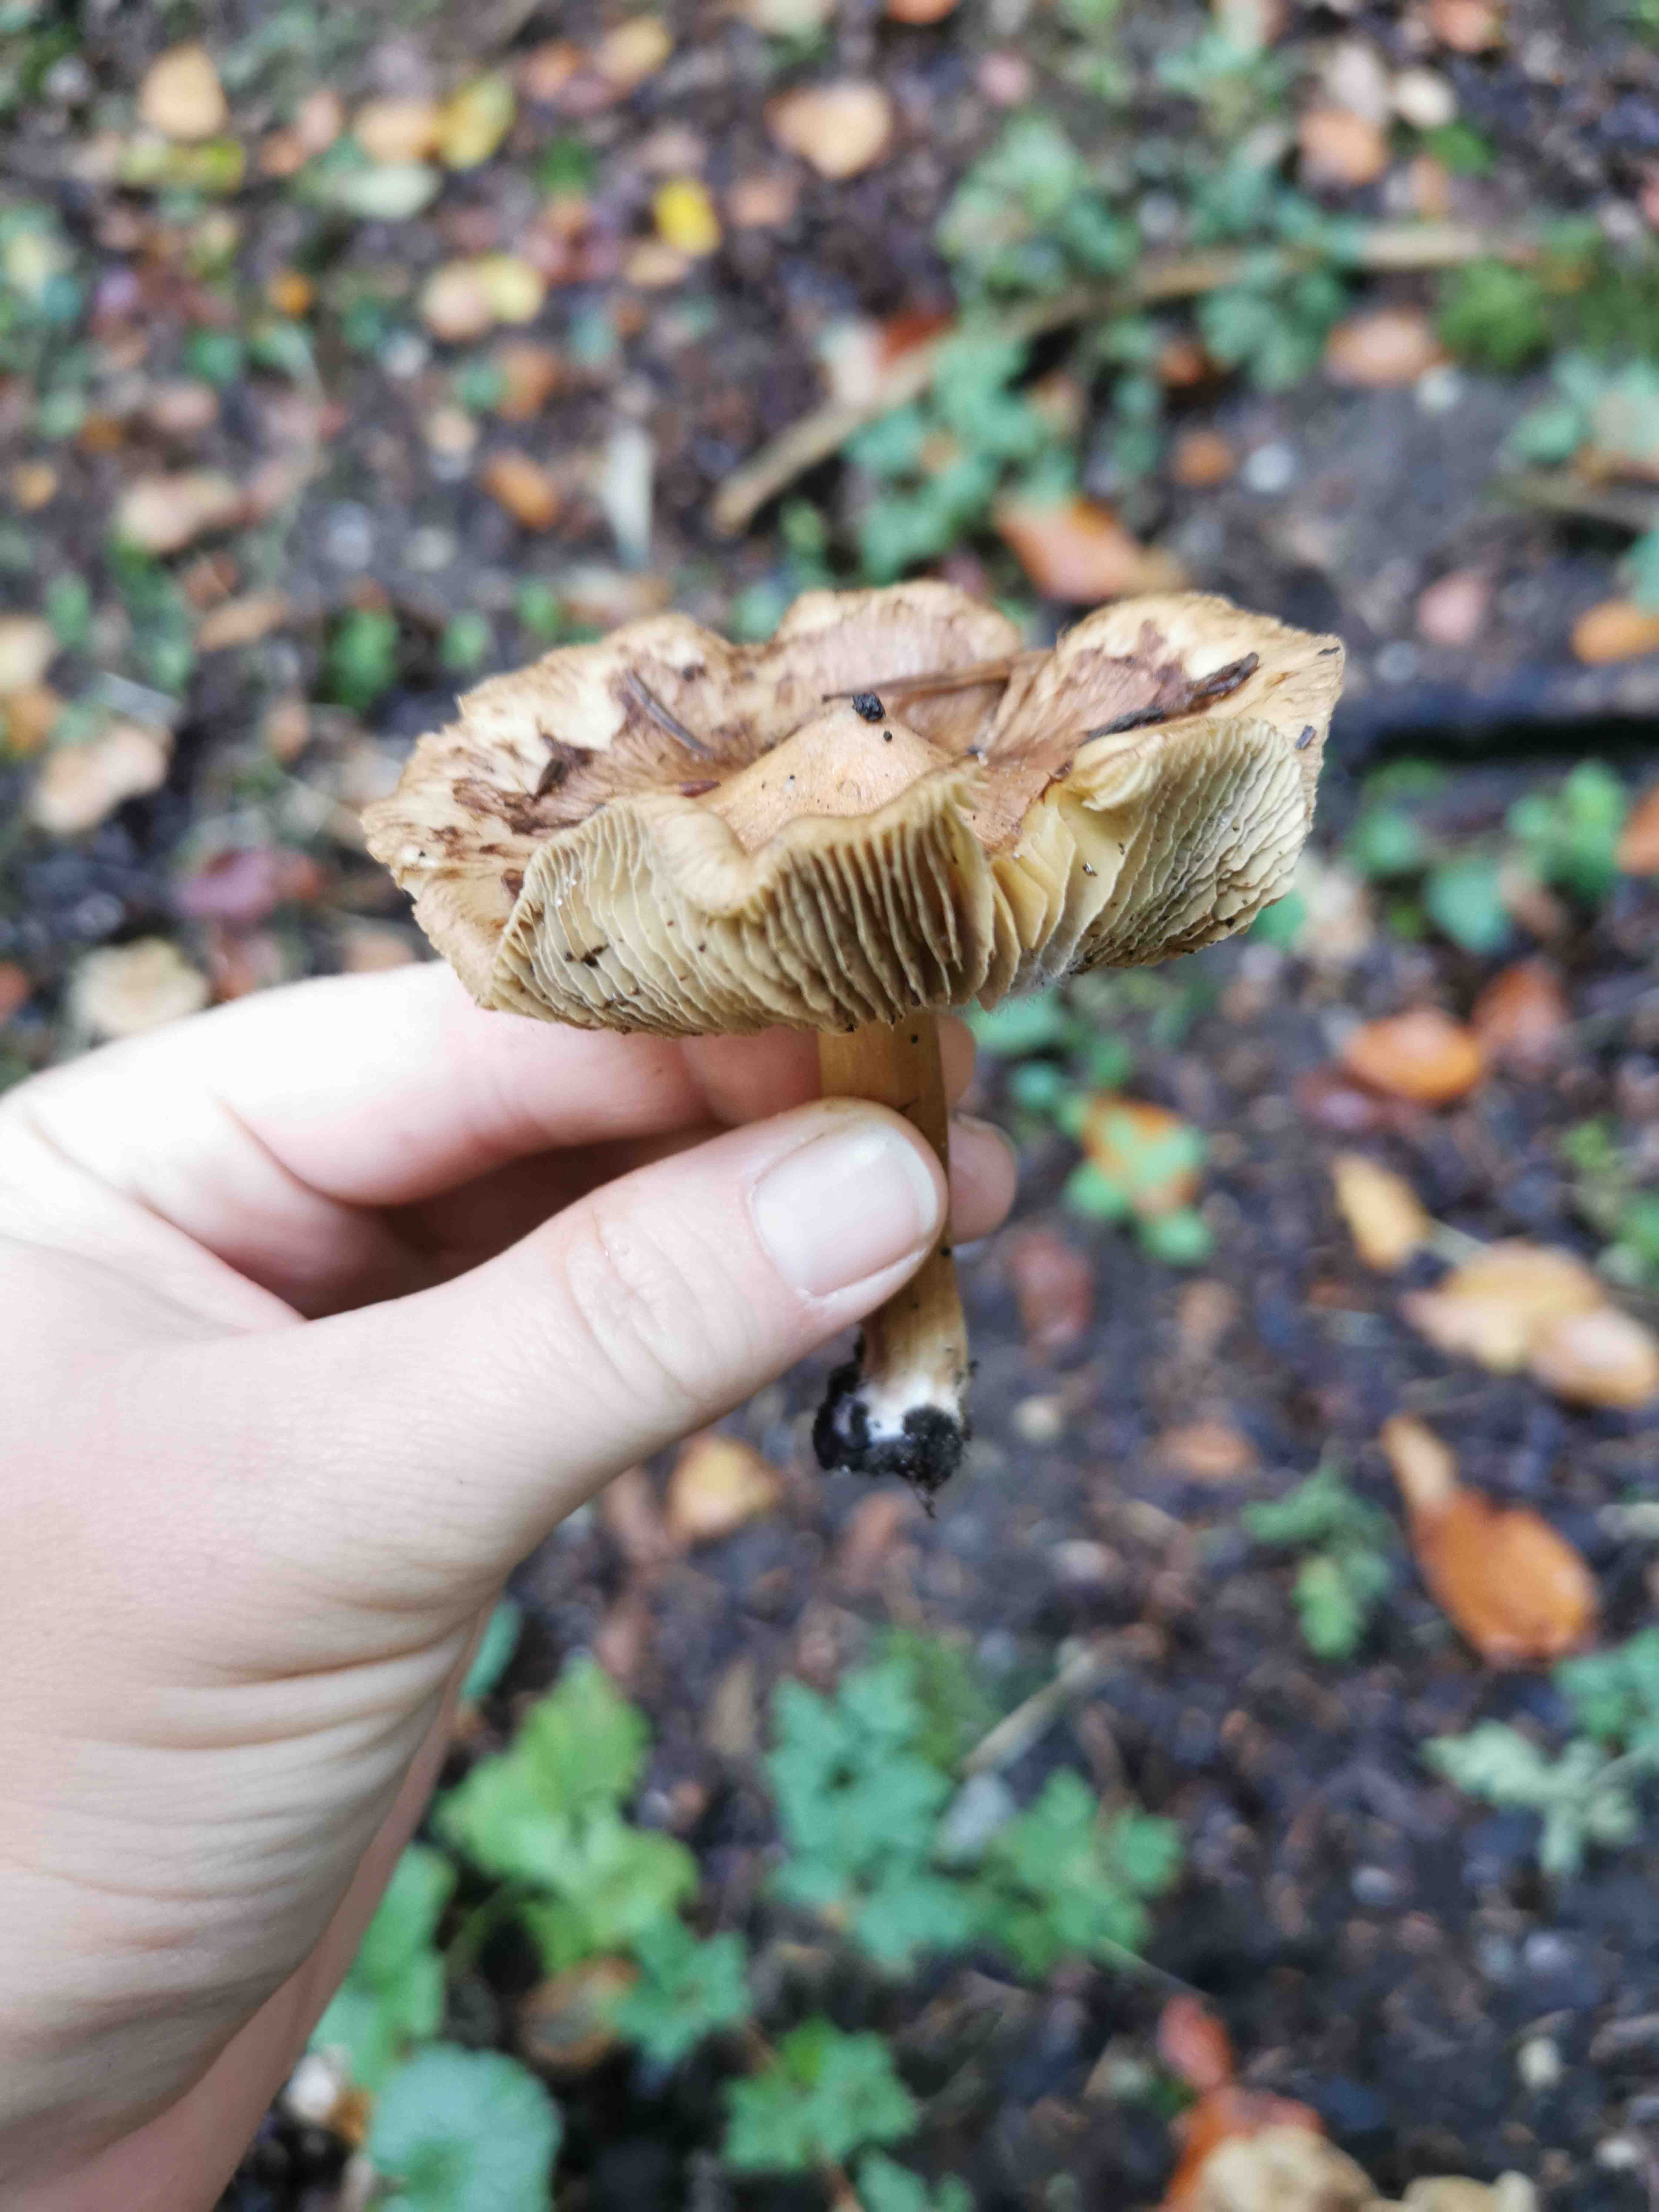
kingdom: Fungi
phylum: Basidiomycota
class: Agaricomycetes
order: Agaricales
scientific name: Agaricales
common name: champignonordenen
